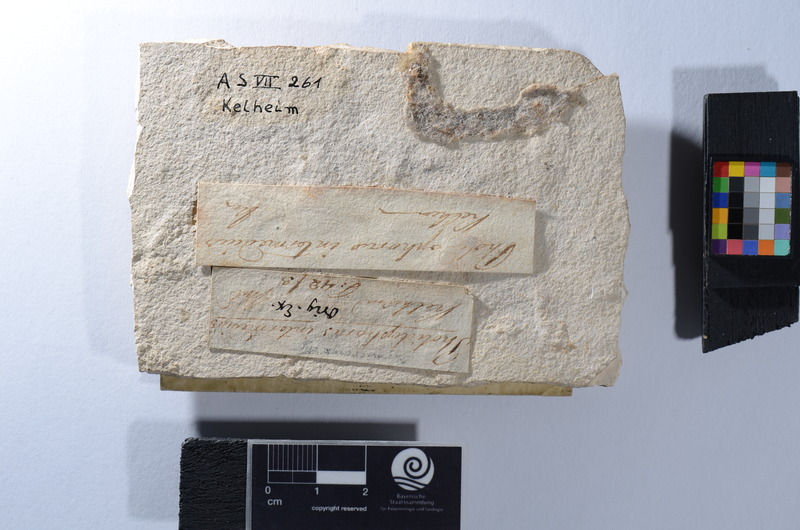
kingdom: Animalia
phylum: Chordata
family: Ankylophoridae
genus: Pholidophoristion
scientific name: Pholidophoristion micronyx
